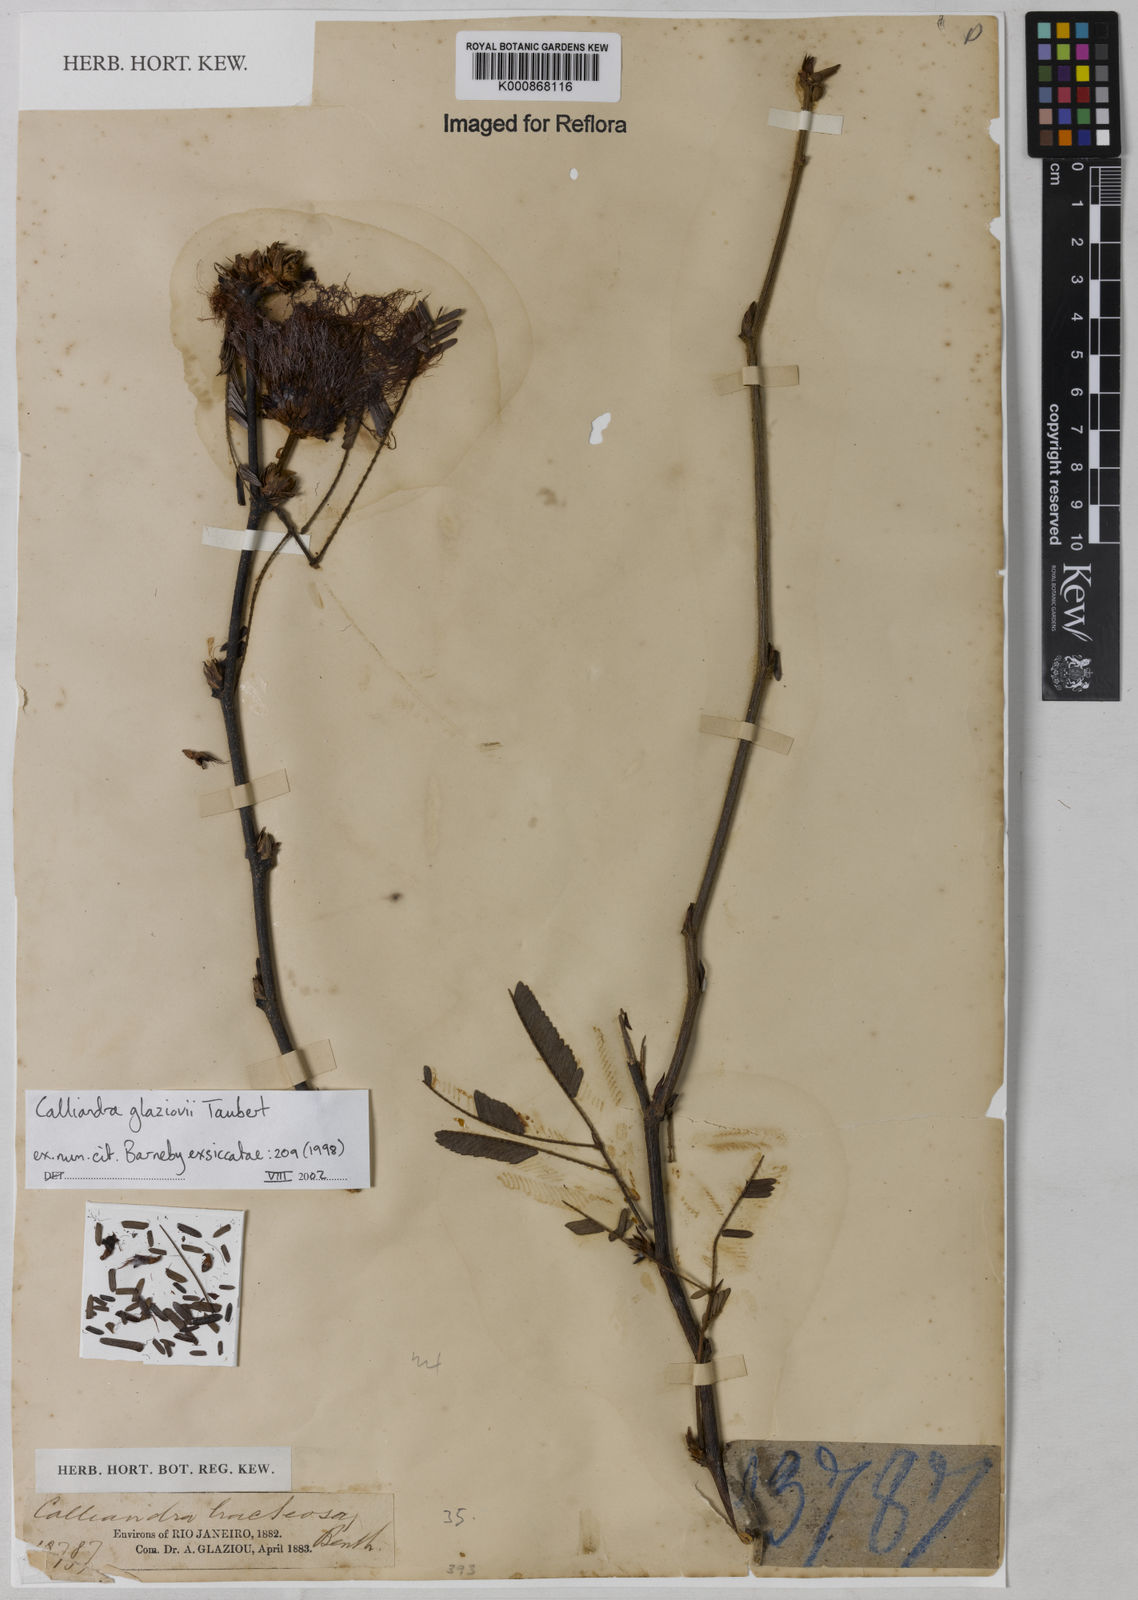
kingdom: Plantae
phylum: Tracheophyta
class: Magnoliopsida
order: Fabales
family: Fabaceae
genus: Calliandra
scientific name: Calliandra glaziovii
